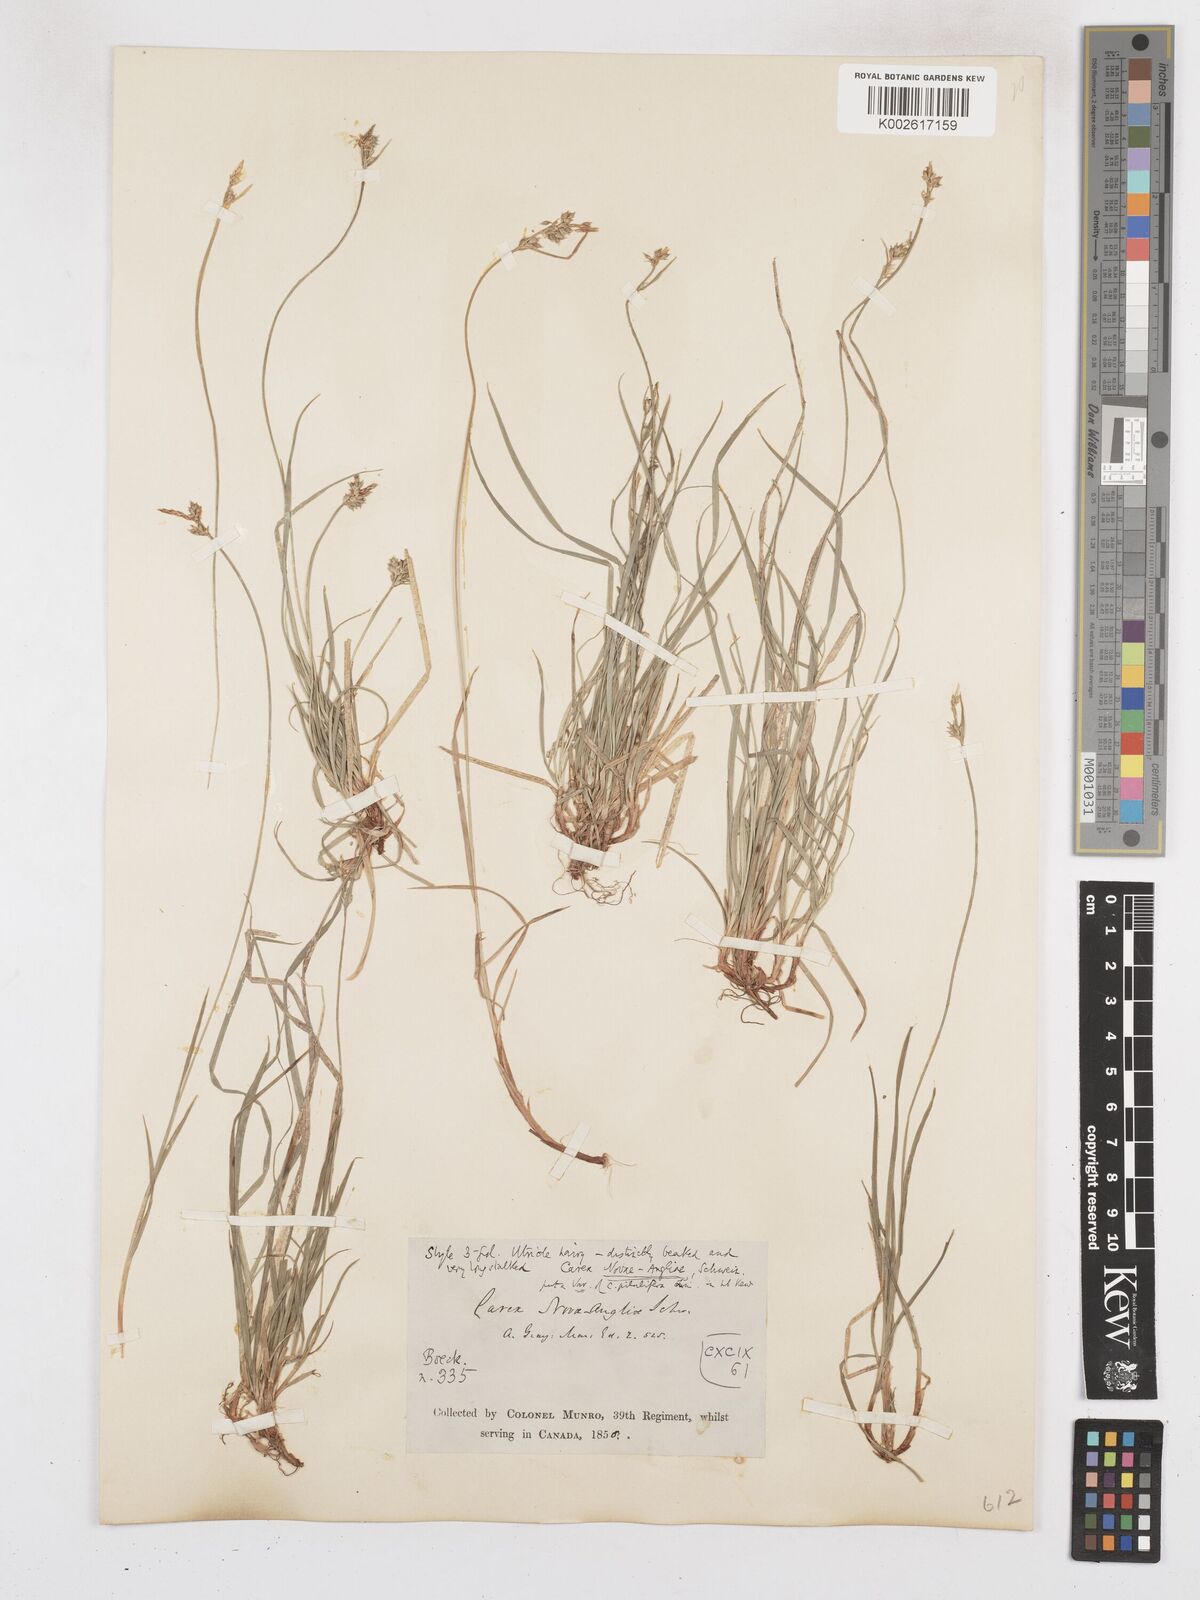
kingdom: Plantae
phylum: Tracheophyta
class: Liliopsida
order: Poales
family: Cyperaceae
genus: Carex
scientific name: Carex novae-angliae
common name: New england sedge
